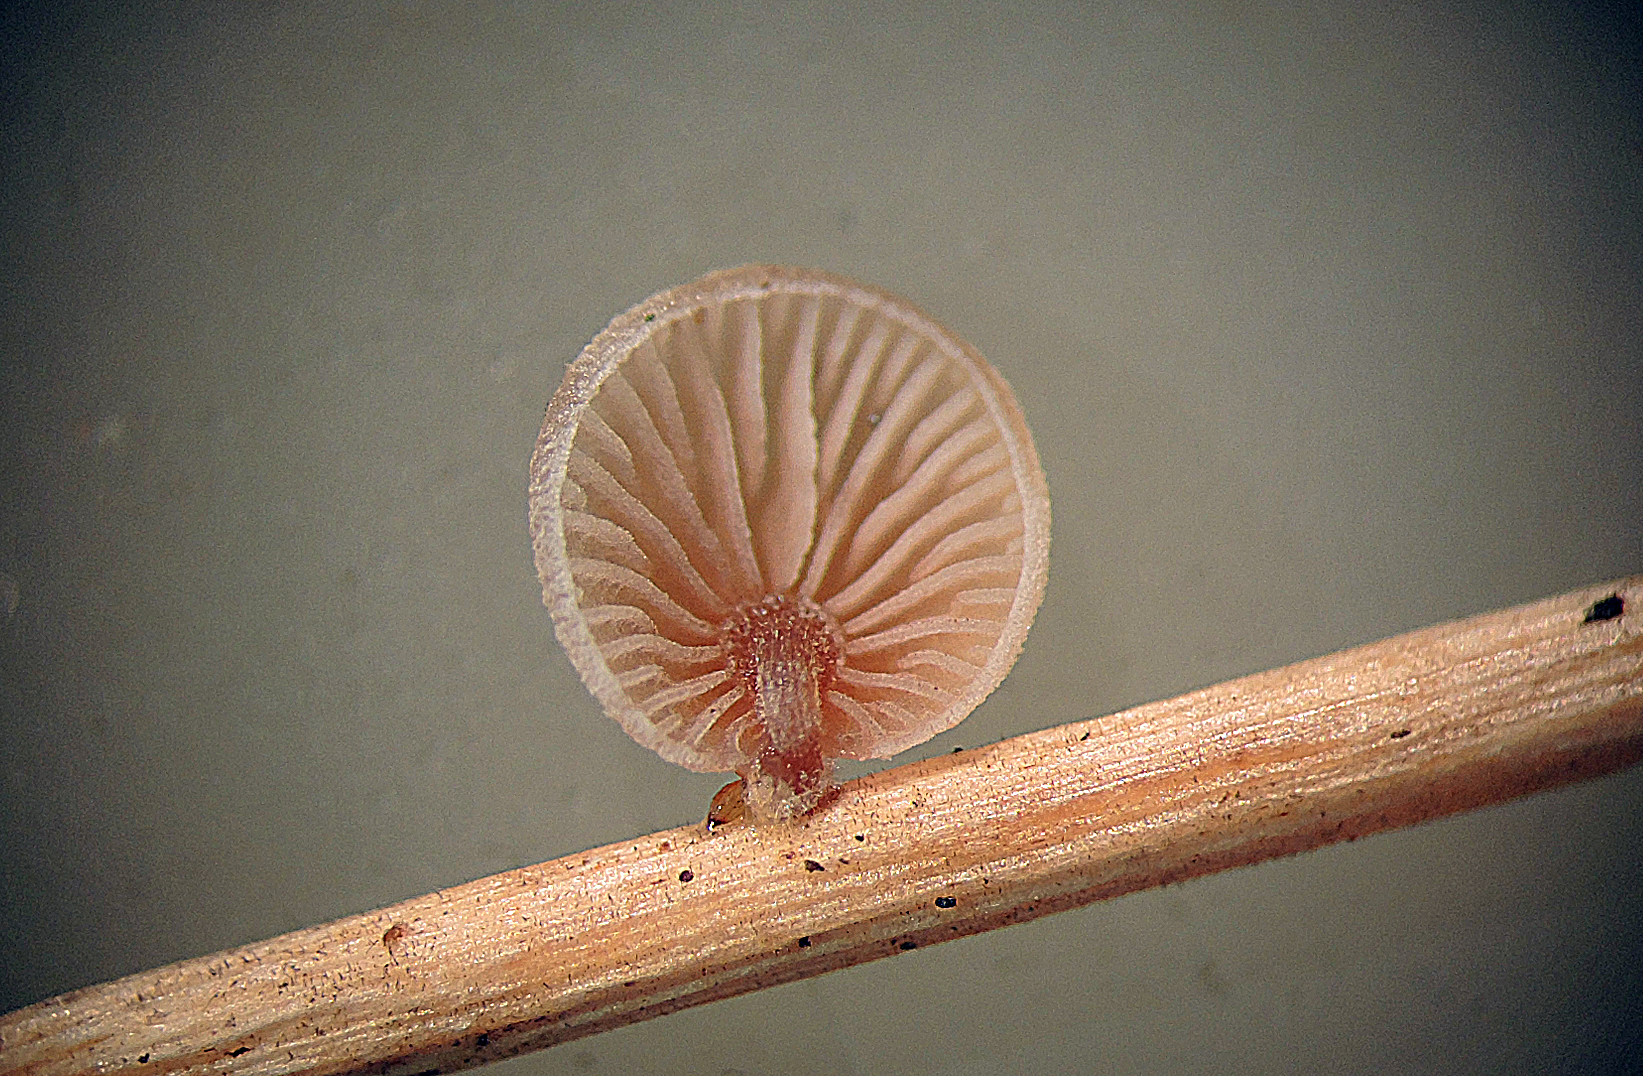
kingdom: Fungi
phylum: Basidiomycota
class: Agaricomycetes
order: Agaricales
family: Strophariaceae
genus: Deconica
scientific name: Deconica phillipsii
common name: almindelig stråhat
